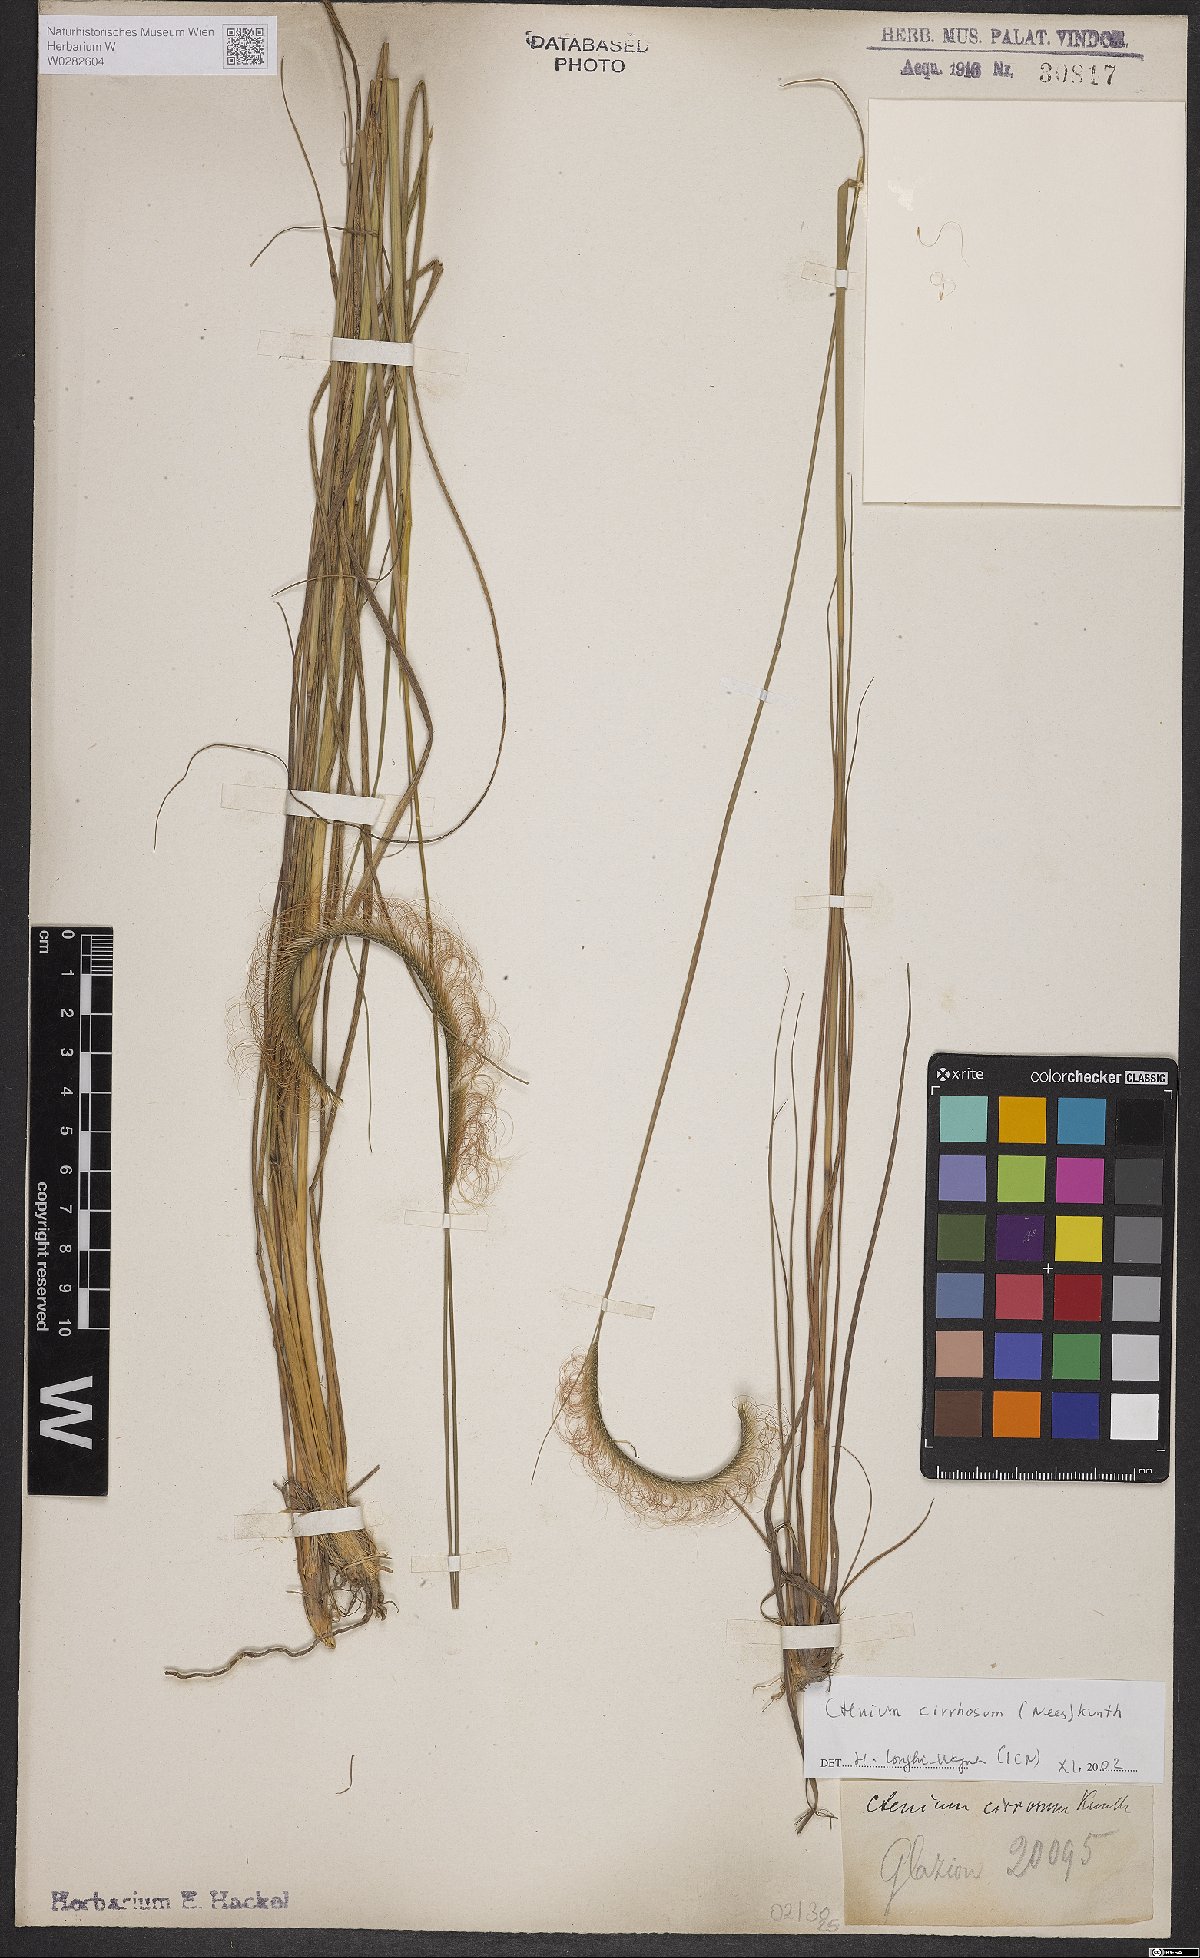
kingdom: Plantae
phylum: Tracheophyta
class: Liliopsida
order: Poales
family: Poaceae
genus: Ctenium
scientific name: Ctenium cirrhosum
